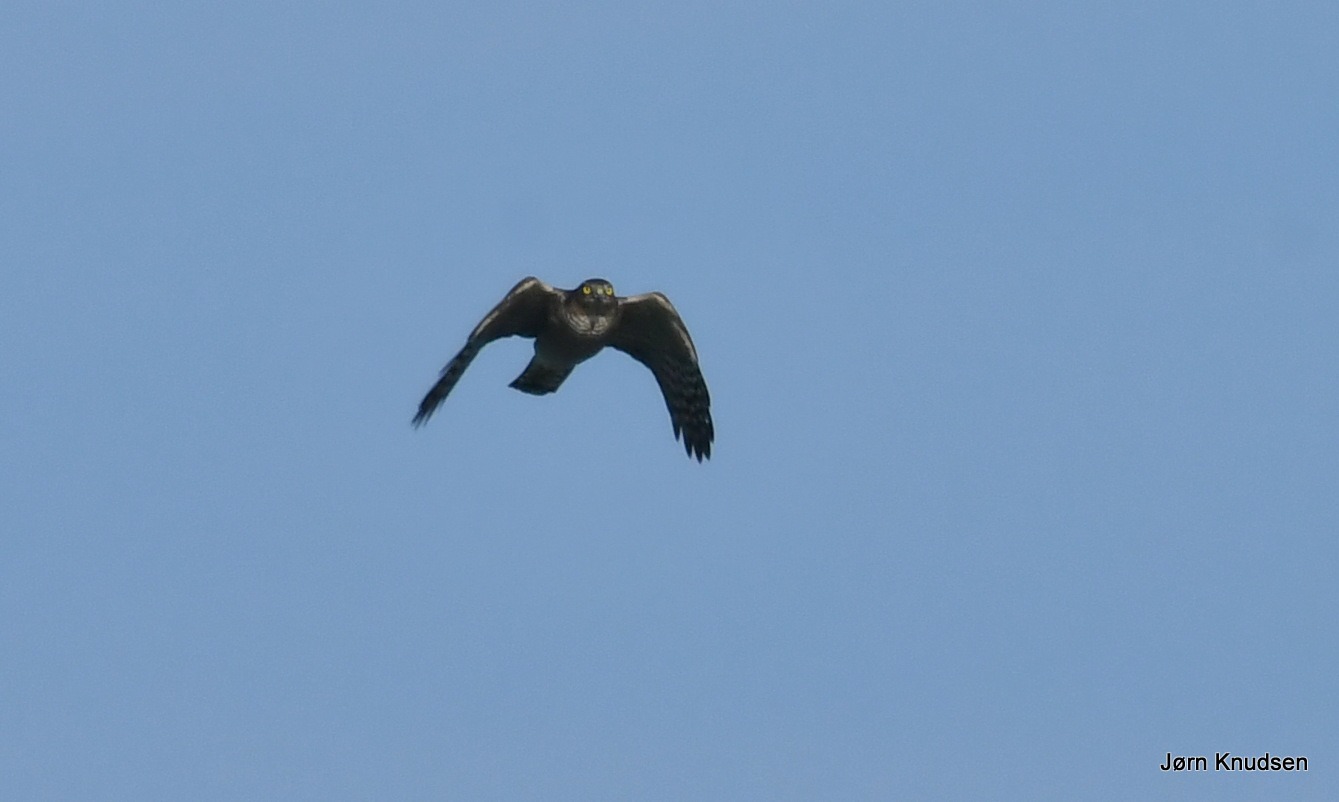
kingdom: Animalia
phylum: Chordata
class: Aves
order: Accipitriformes
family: Accipitridae
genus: Accipiter
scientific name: Accipiter nisus
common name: Spurvehøg
